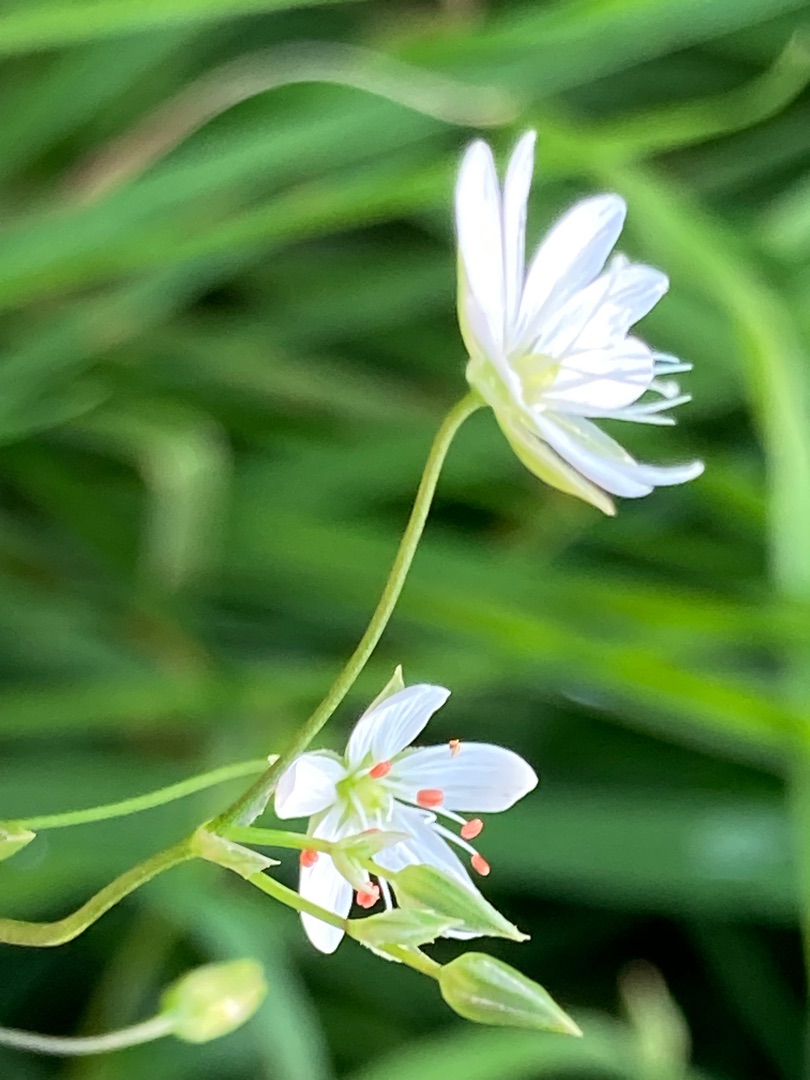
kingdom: Plantae
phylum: Tracheophyta
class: Magnoliopsida
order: Caryophyllales
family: Caryophyllaceae
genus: Stellaria
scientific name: Stellaria graminea
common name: Græsbladet fladstjerne
